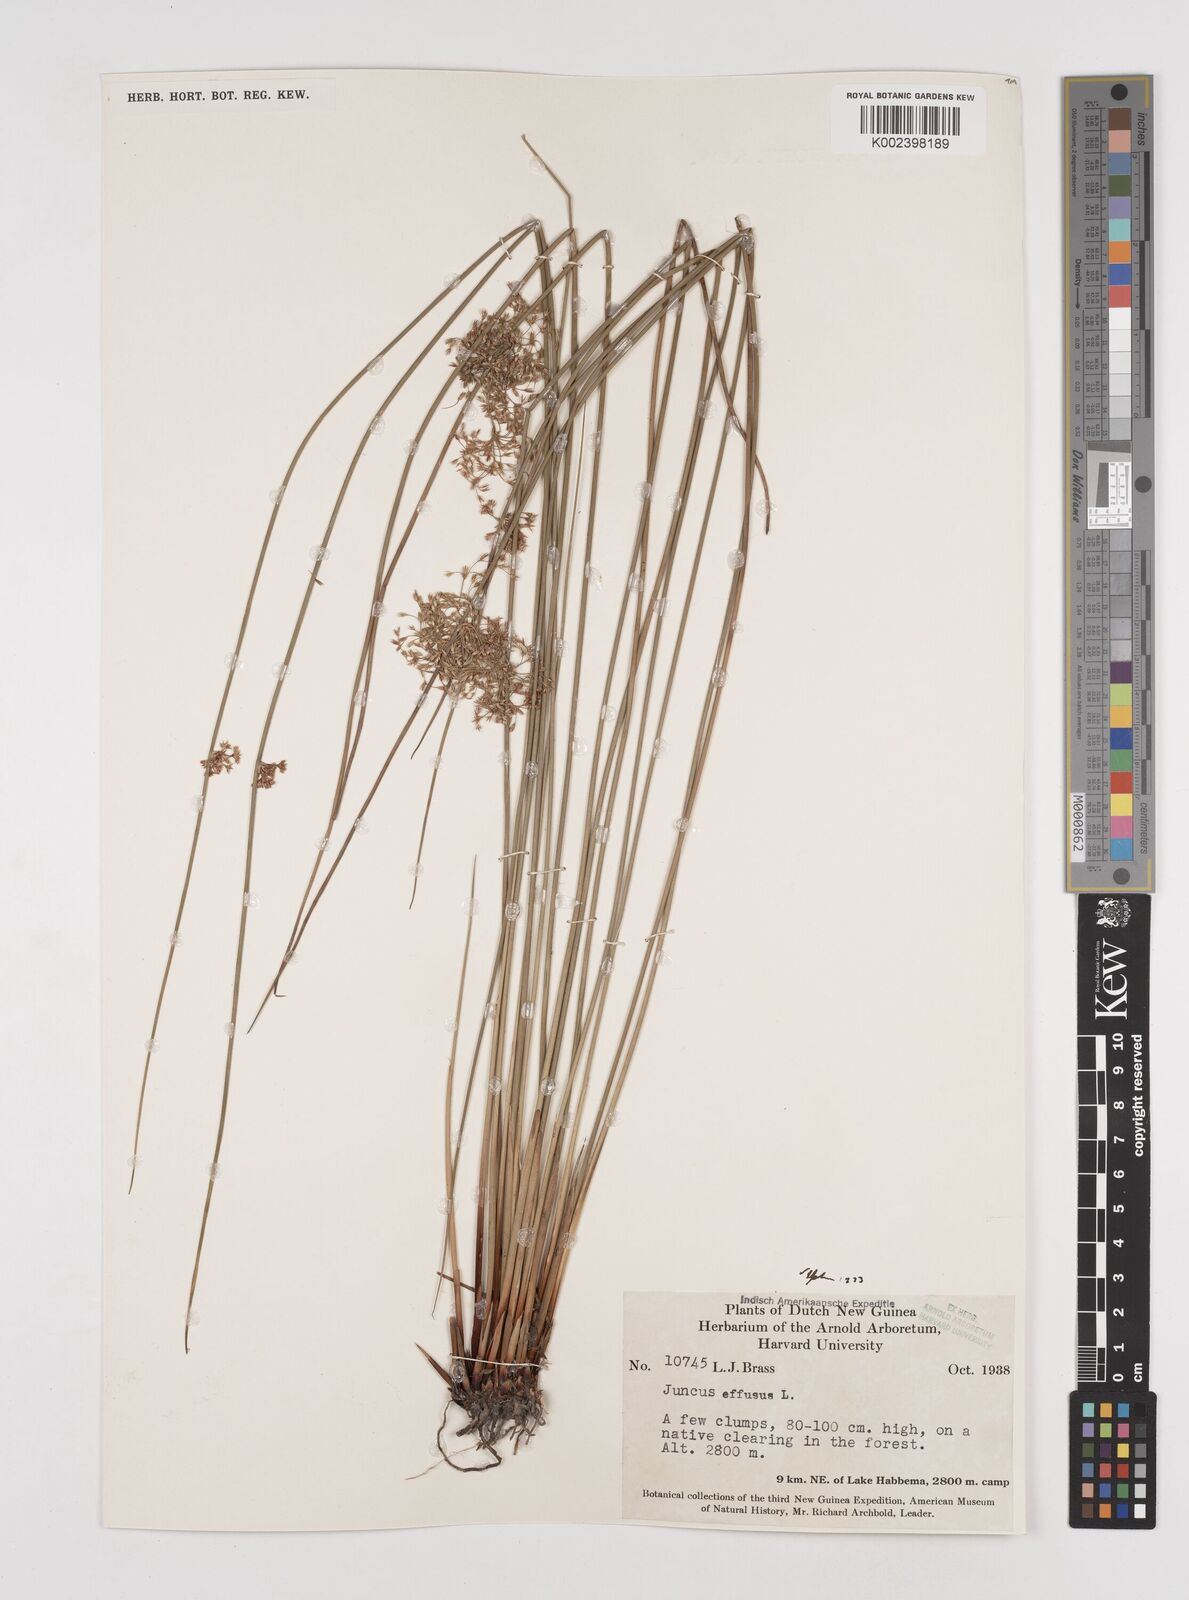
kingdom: Plantae
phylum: Tracheophyta
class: Liliopsida
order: Poales
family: Juncaceae
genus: Juncus
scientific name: Juncus decipiens
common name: Lamp rush
